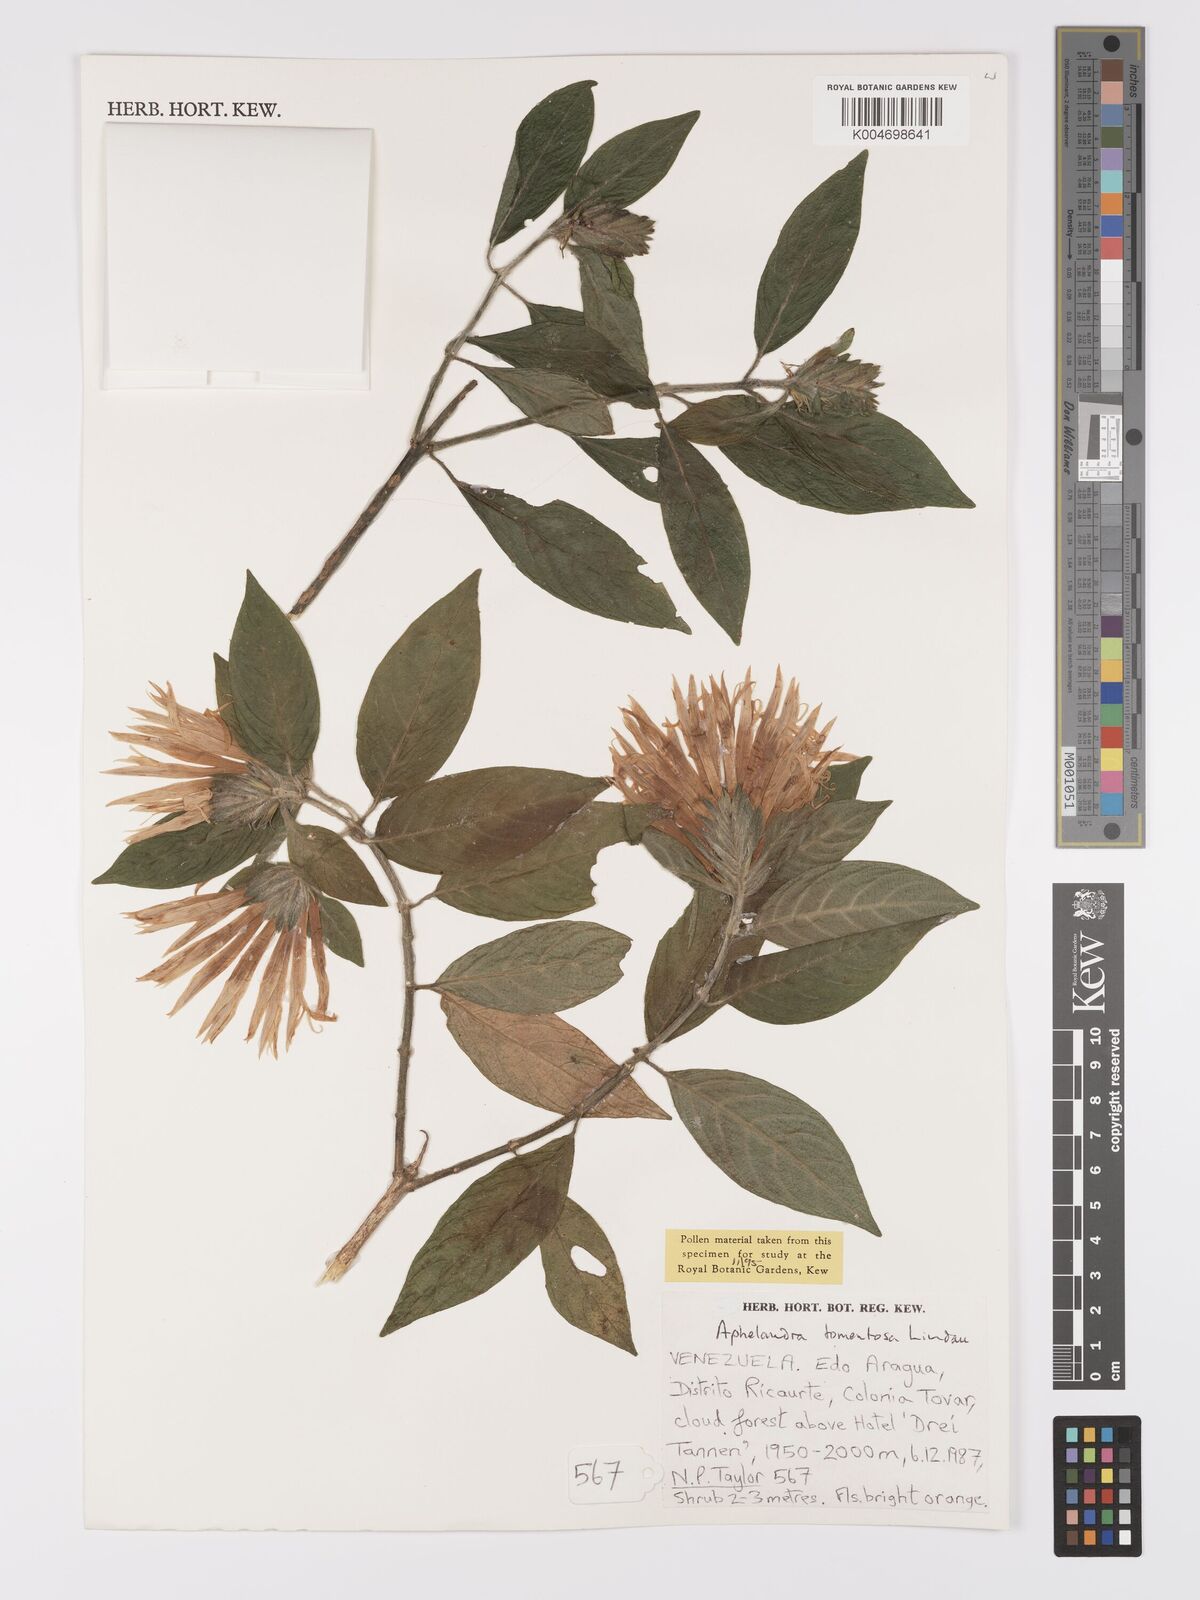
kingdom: Plantae
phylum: Tracheophyta
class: Magnoliopsida
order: Lamiales
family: Acanthaceae
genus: Aphelandra
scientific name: Aphelandra tomentosa
